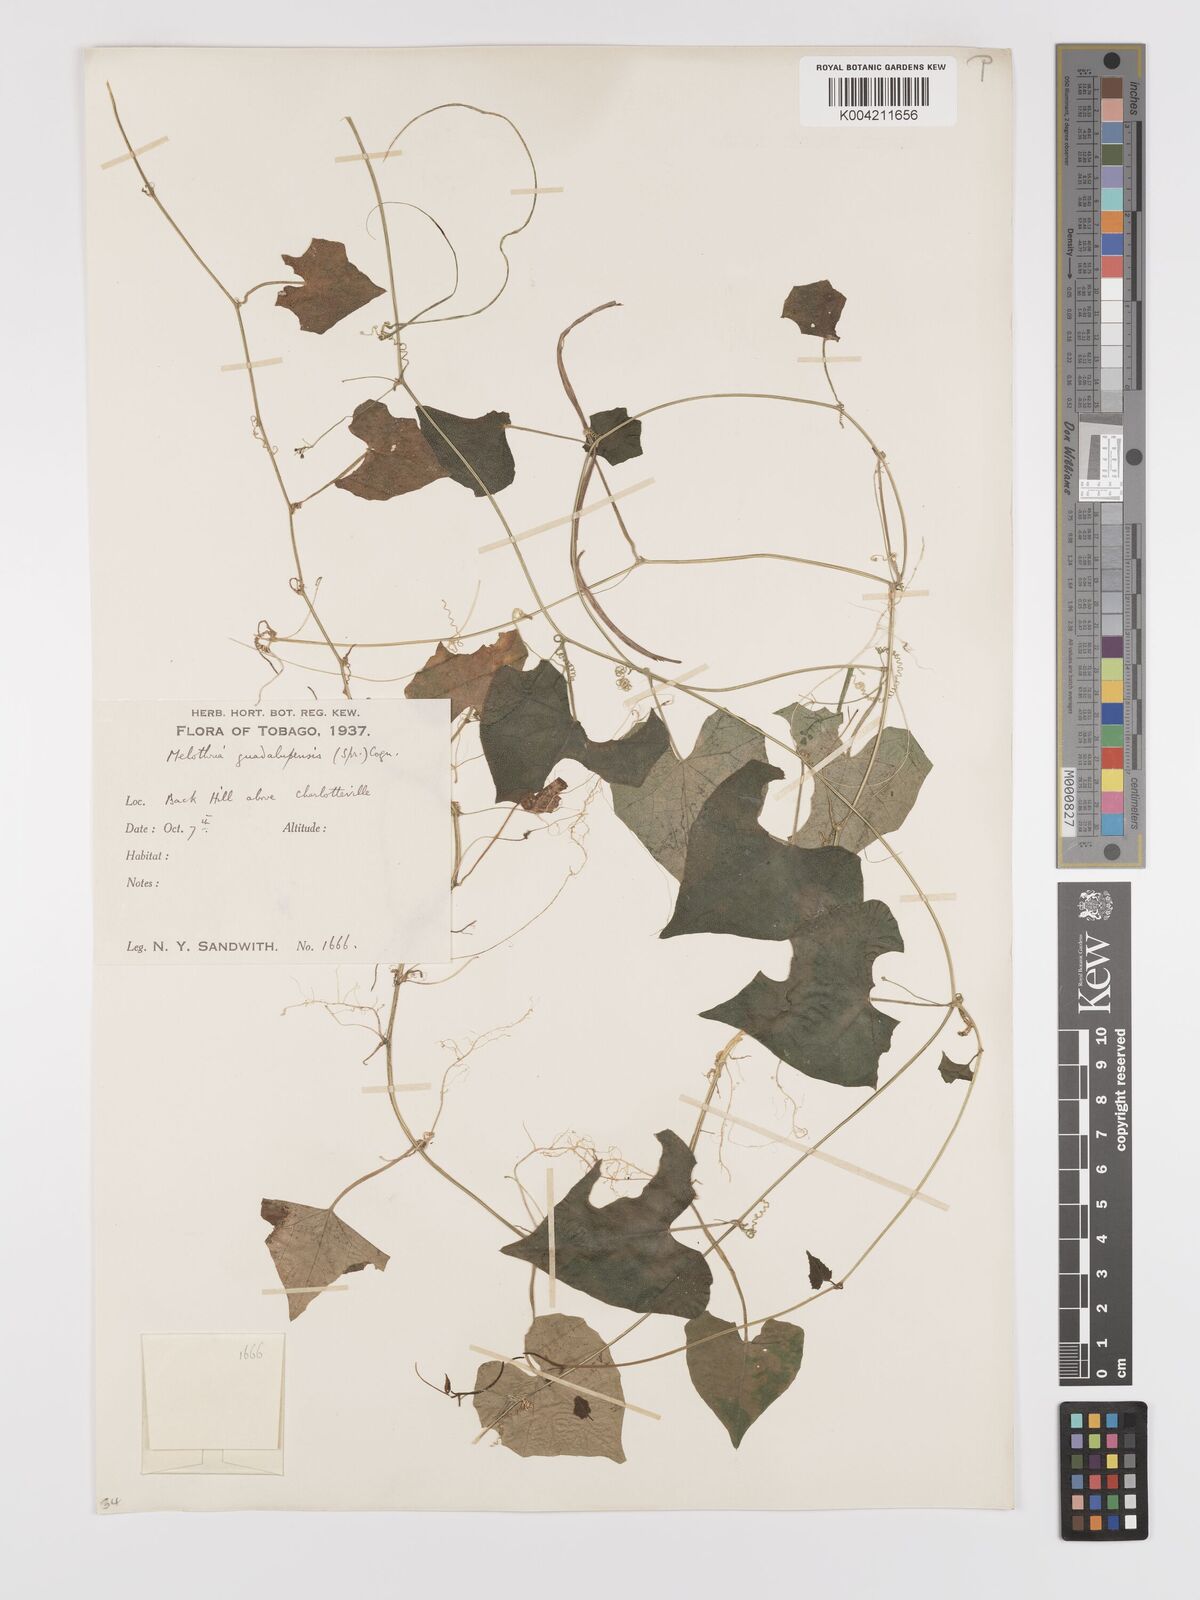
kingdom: Plantae
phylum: Tracheophyta
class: Magnoliopsida
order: Cucurbitales
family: Cucurbitaceae
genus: Melothria
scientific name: Melothria
